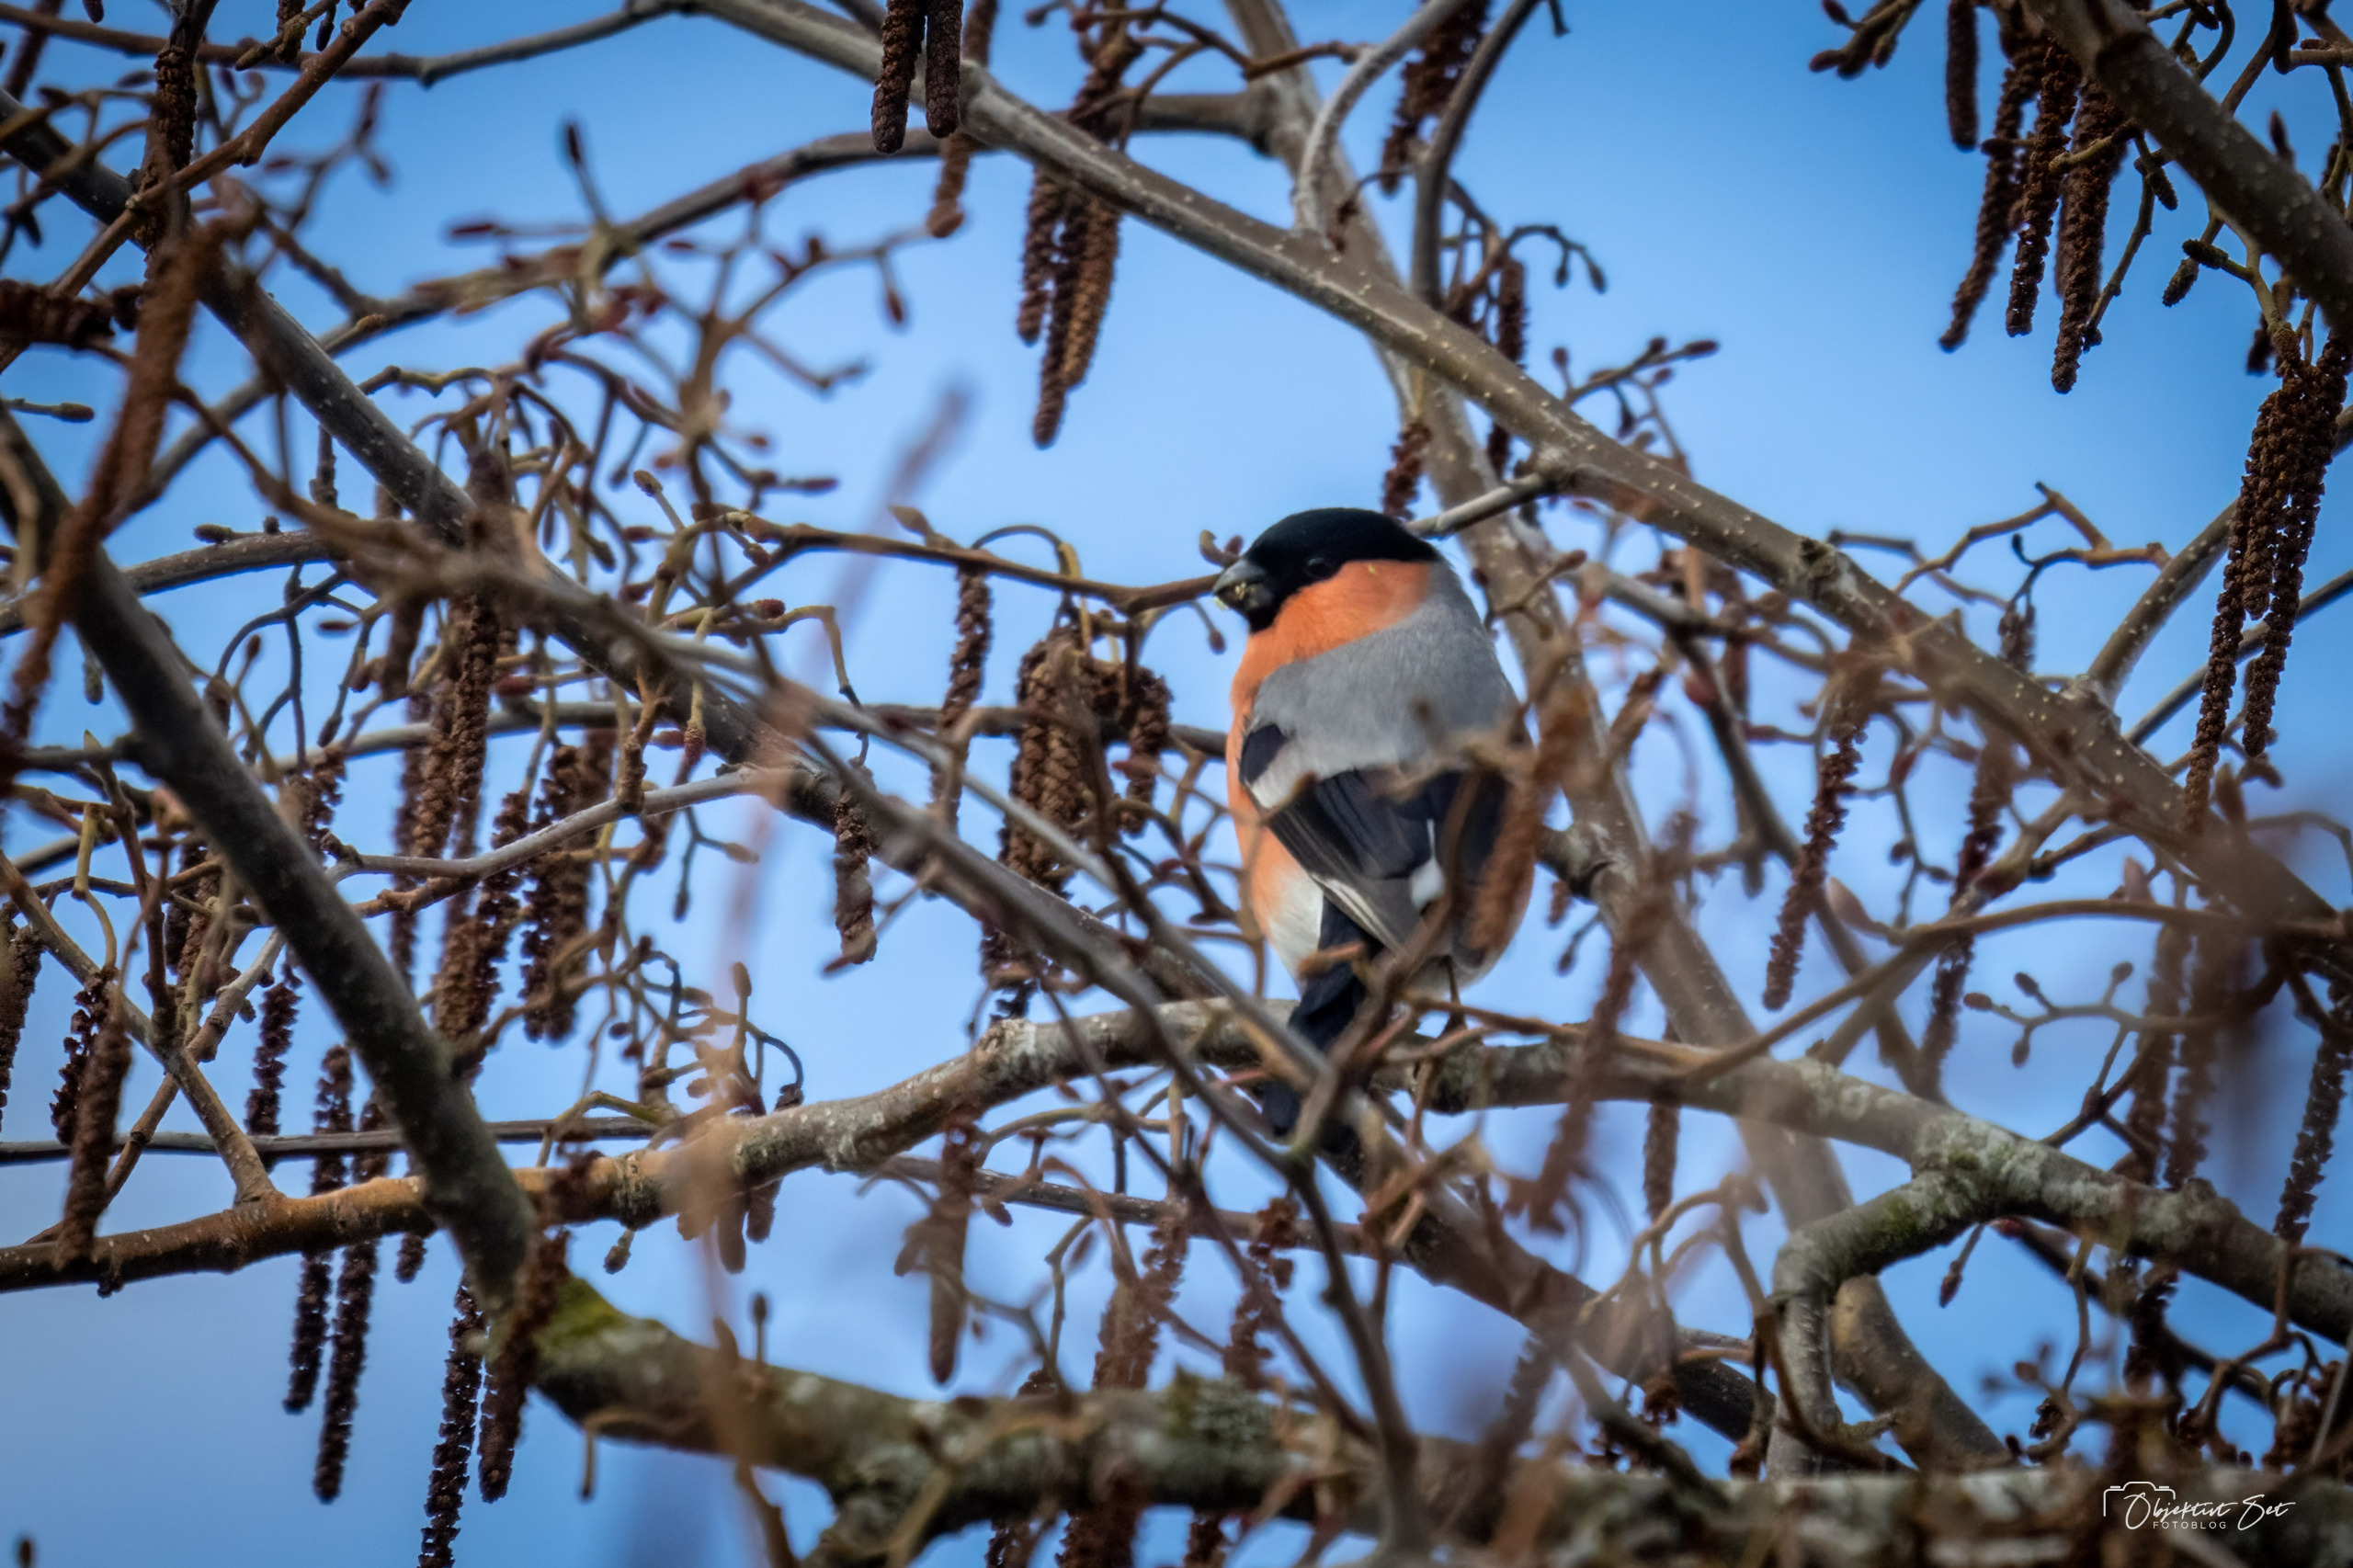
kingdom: Animalia
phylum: Chordata
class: Aves
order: Passeriformes
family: Fringillidae
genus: Pyrrhula
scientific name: Pyrrhula pyrrhula
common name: Dompap
